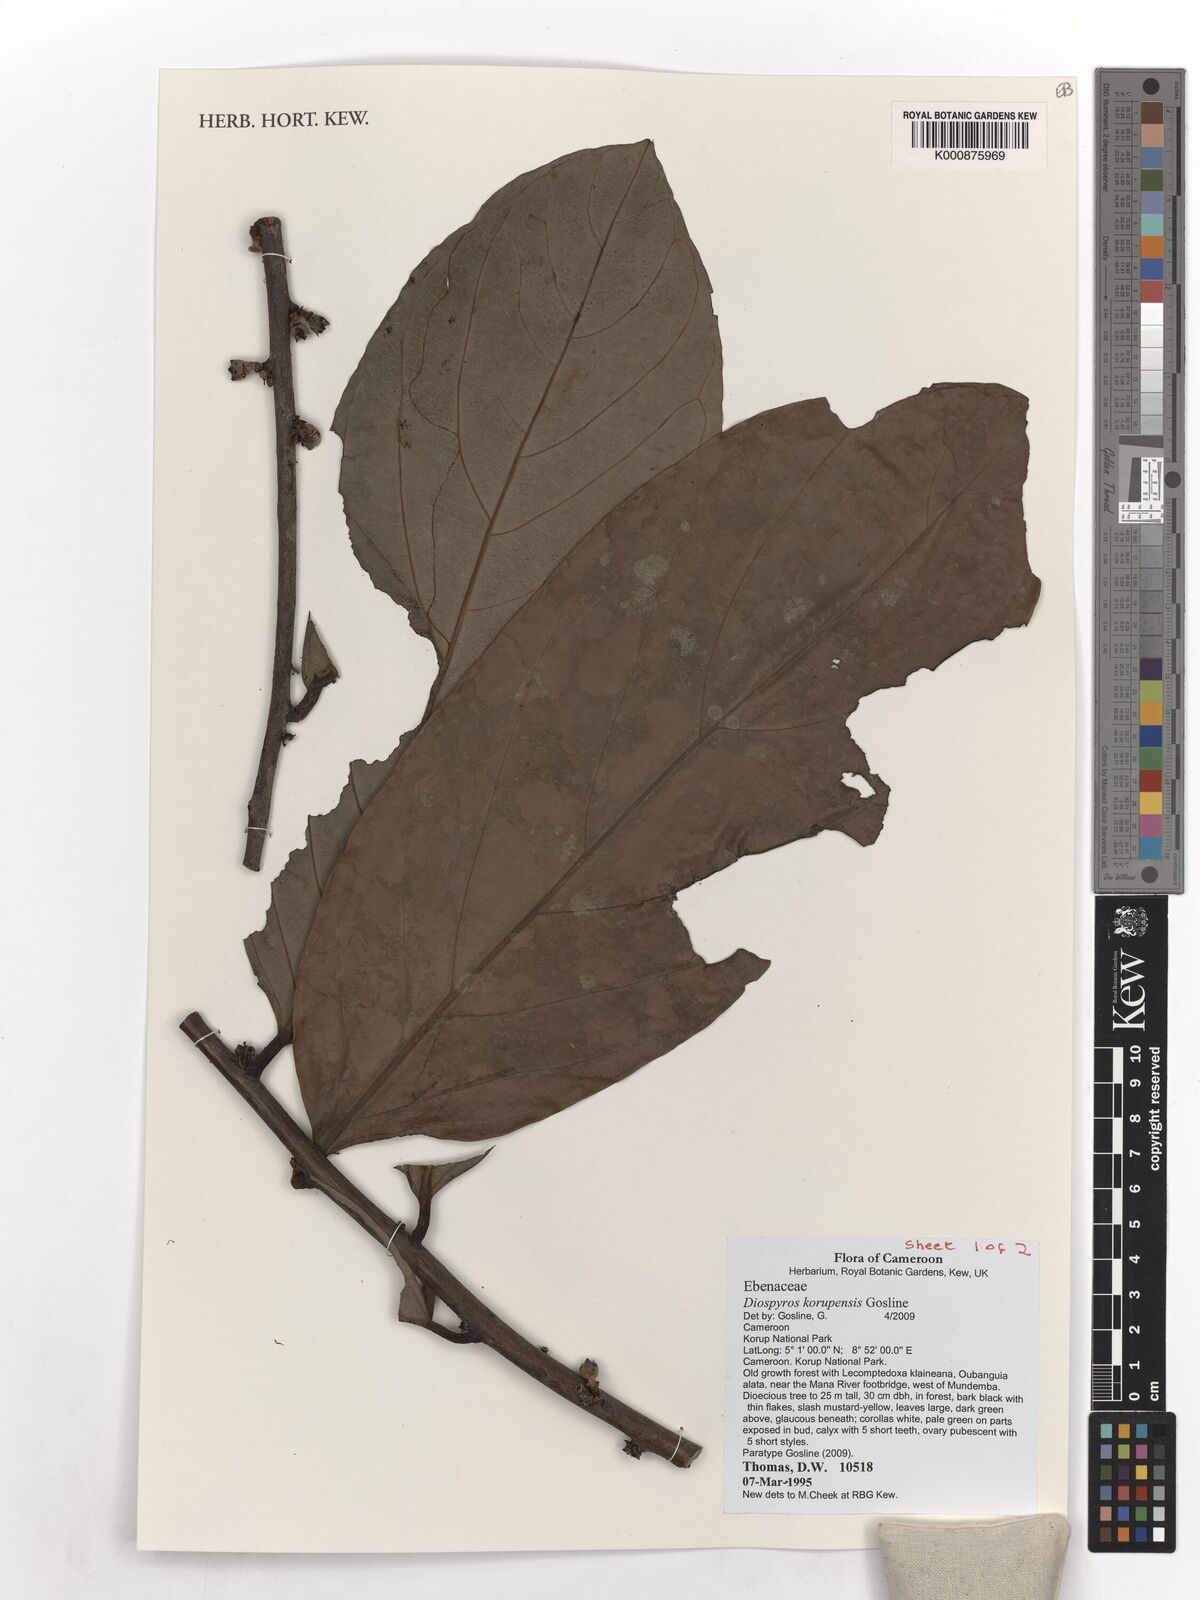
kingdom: Plantae
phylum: Tracheophyta
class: Magnoliopsida
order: Ericales
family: Ebenaceae
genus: Diospyros
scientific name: Diospyros korupensis
